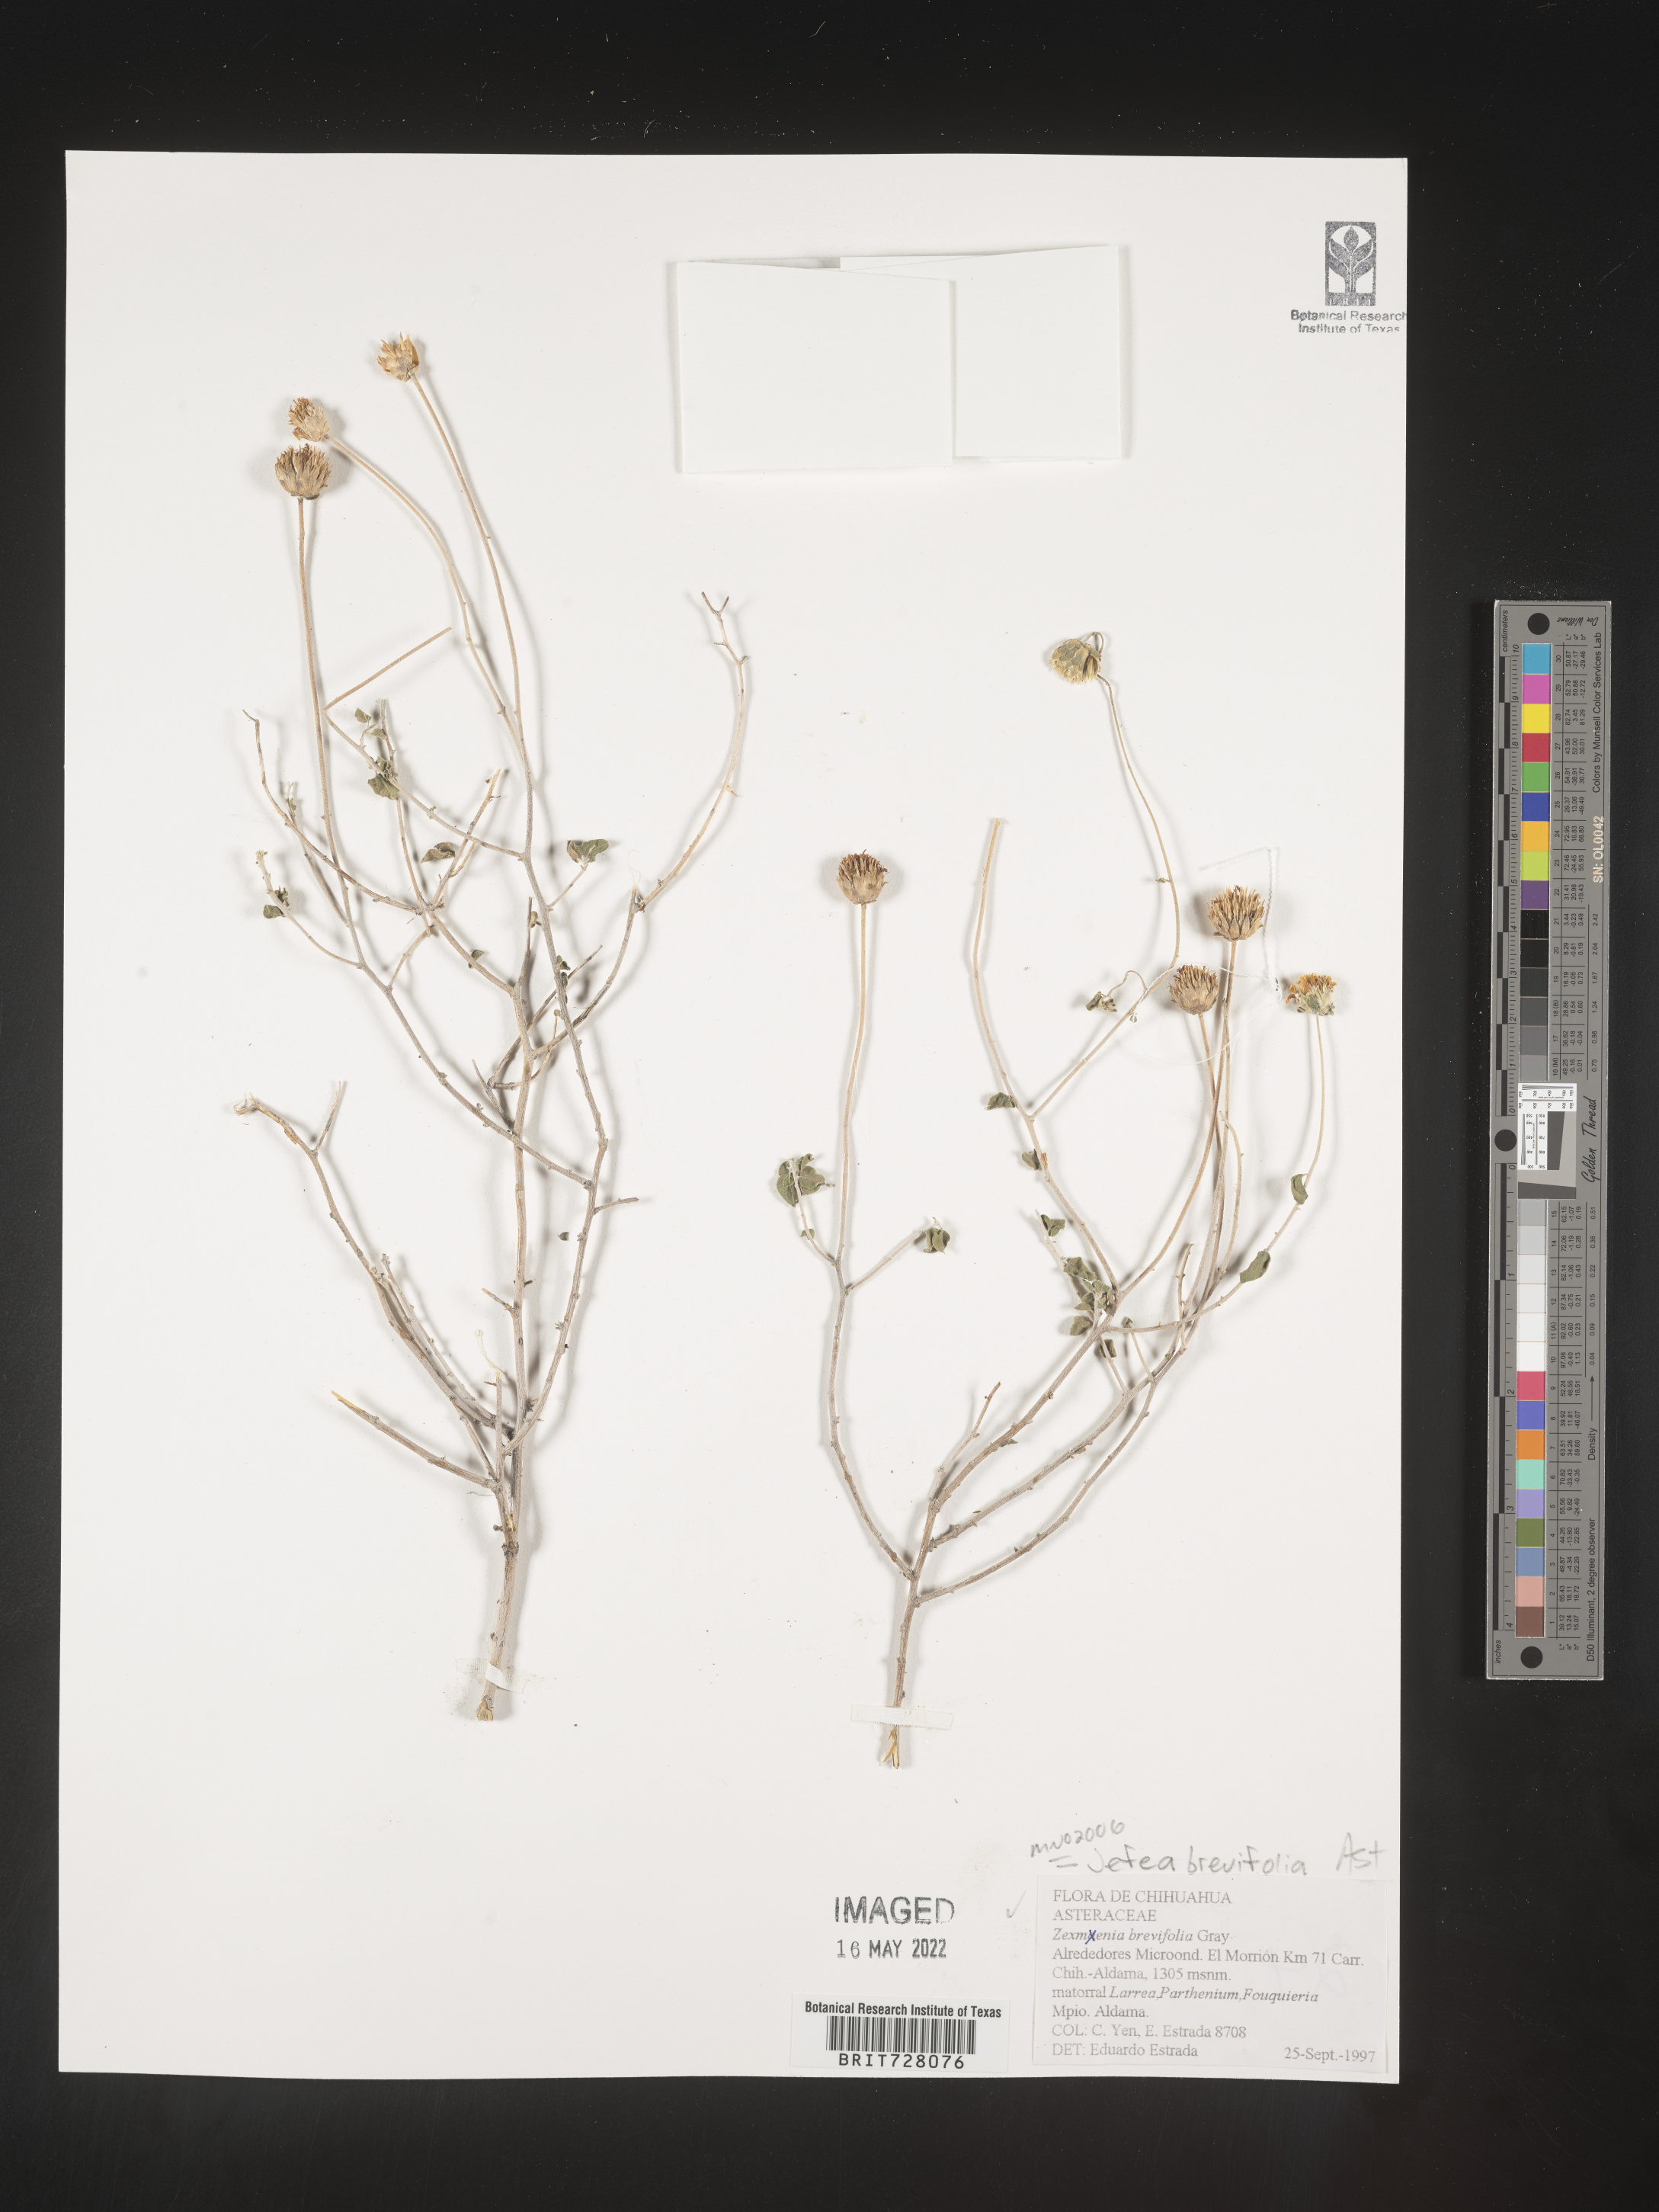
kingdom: Plantae
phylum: Tracheophyta
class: Magnoliopsida
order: Asterales
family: Asteraceae
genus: Jefea
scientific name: Jefea brevifolia
